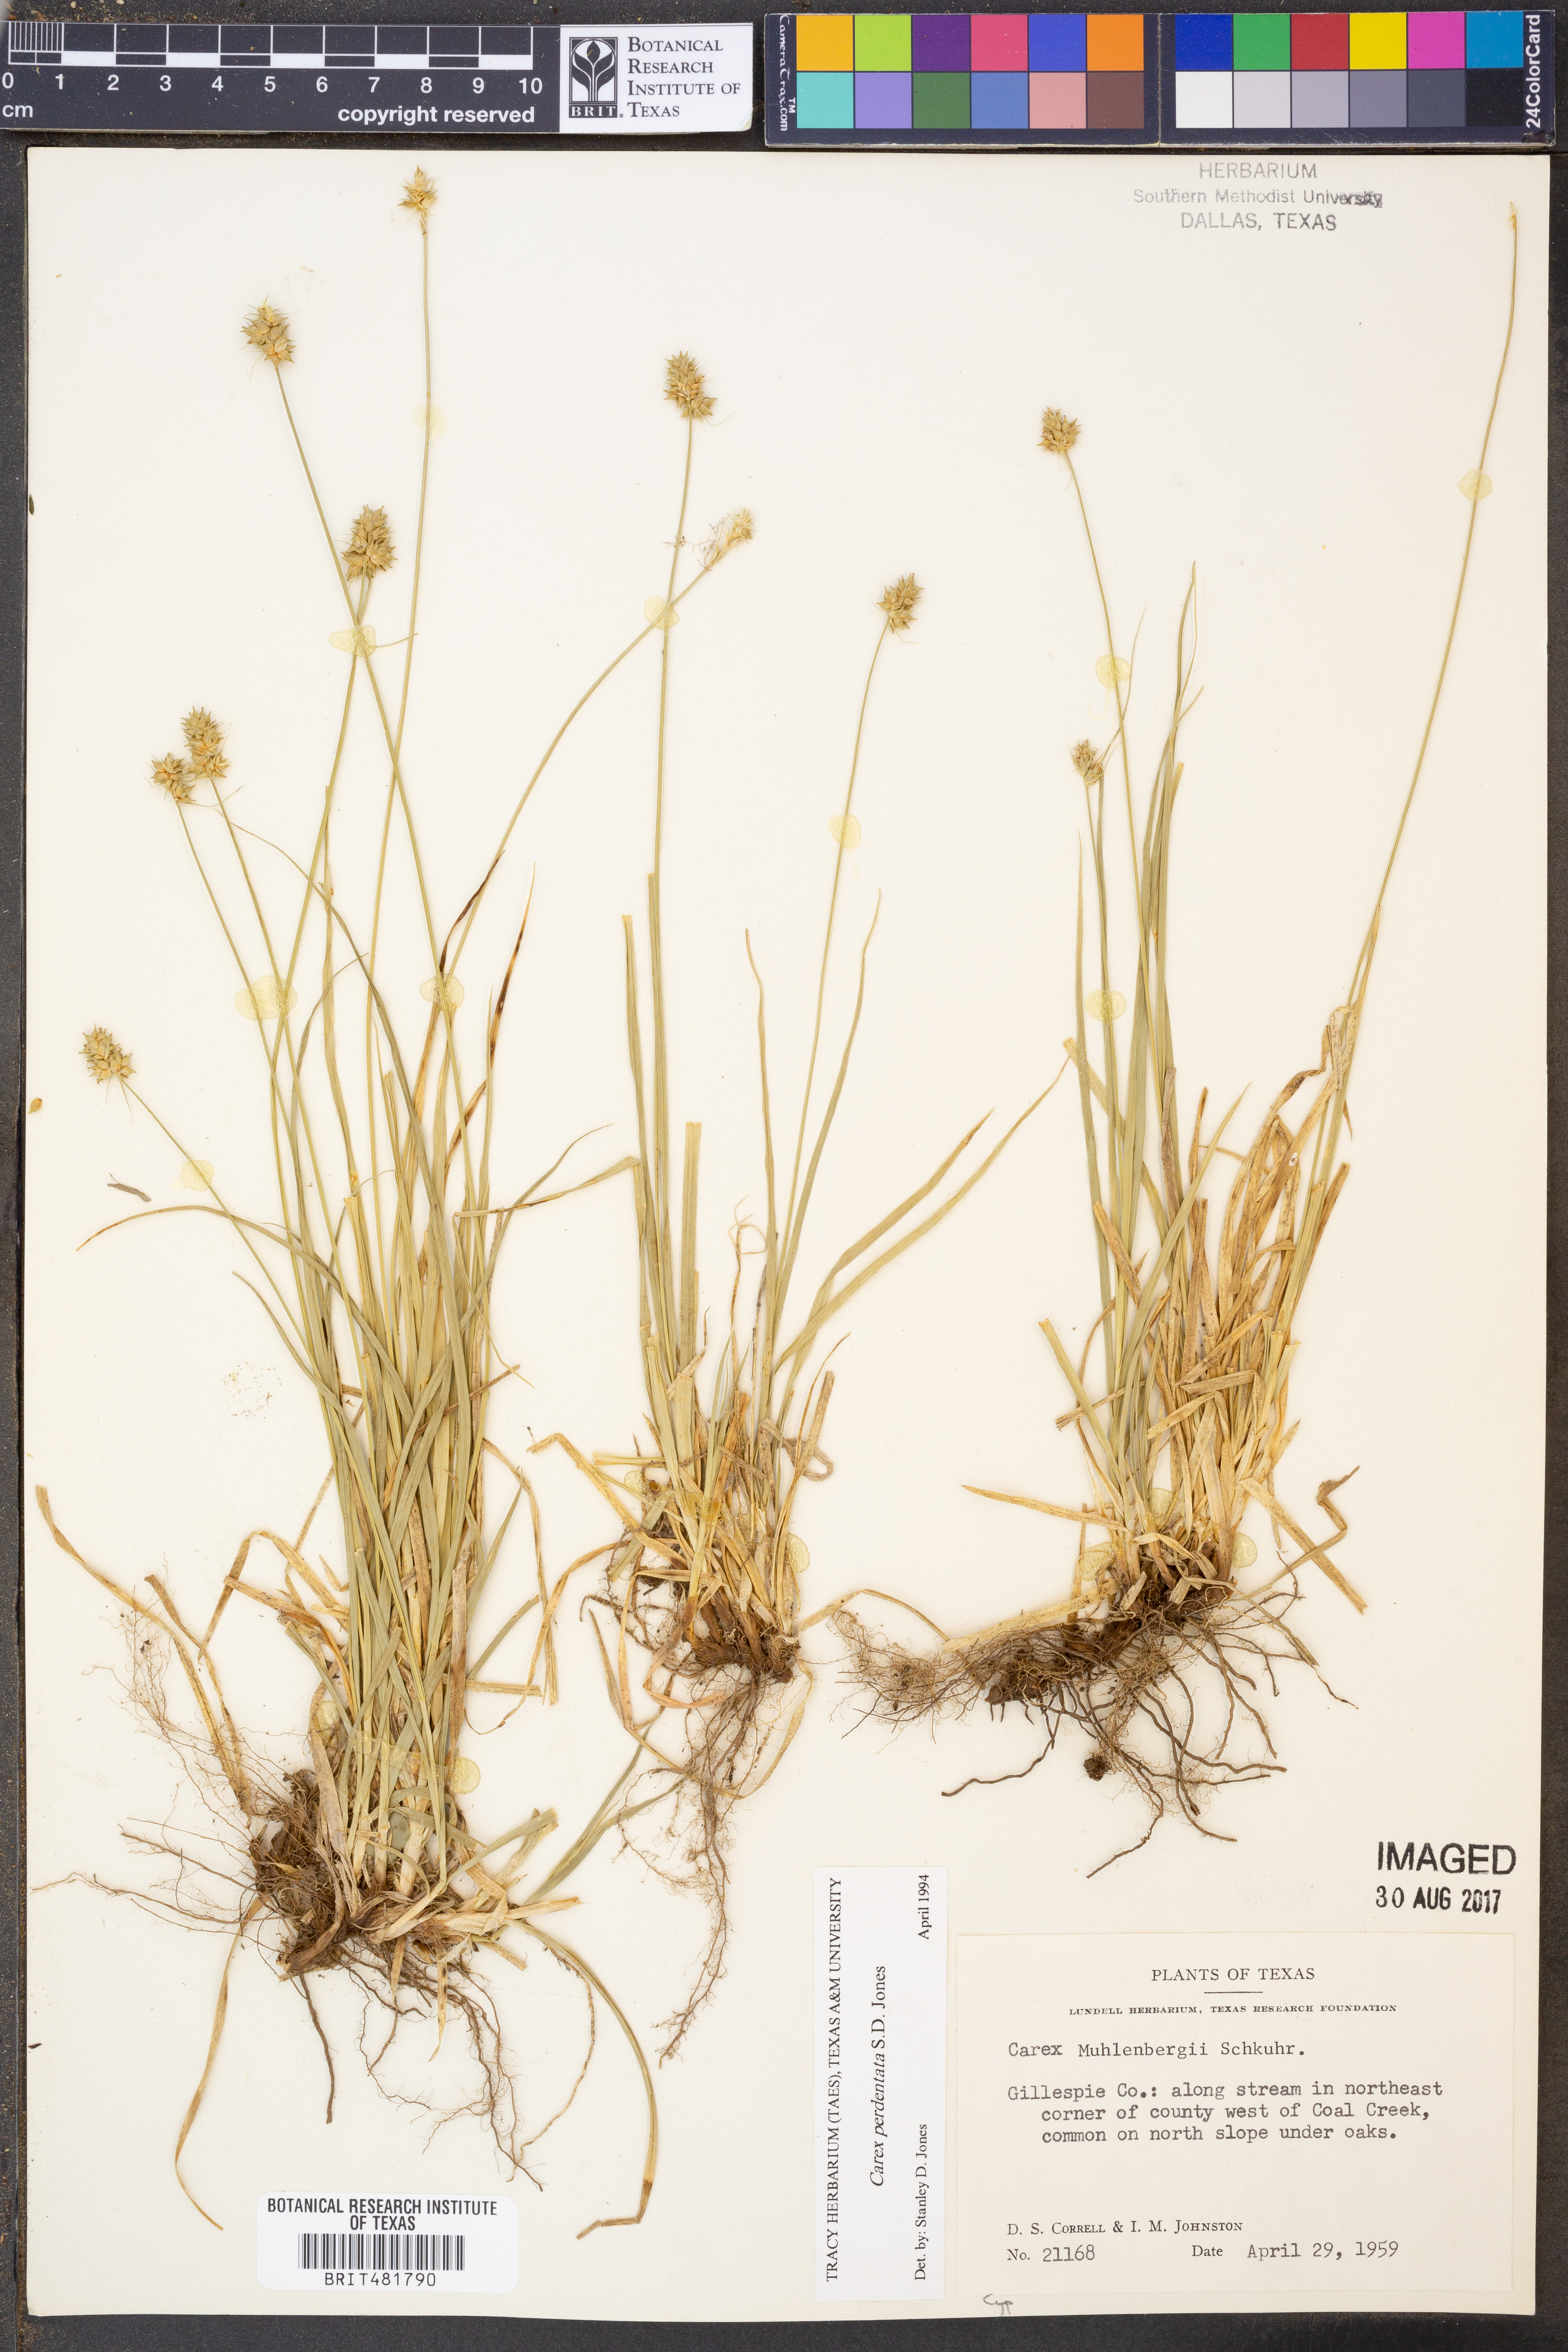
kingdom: Plantae
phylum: Tracheophyta
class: Liliopsida
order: Poales
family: Cyperaceae
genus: Carex
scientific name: Carex perdentata
